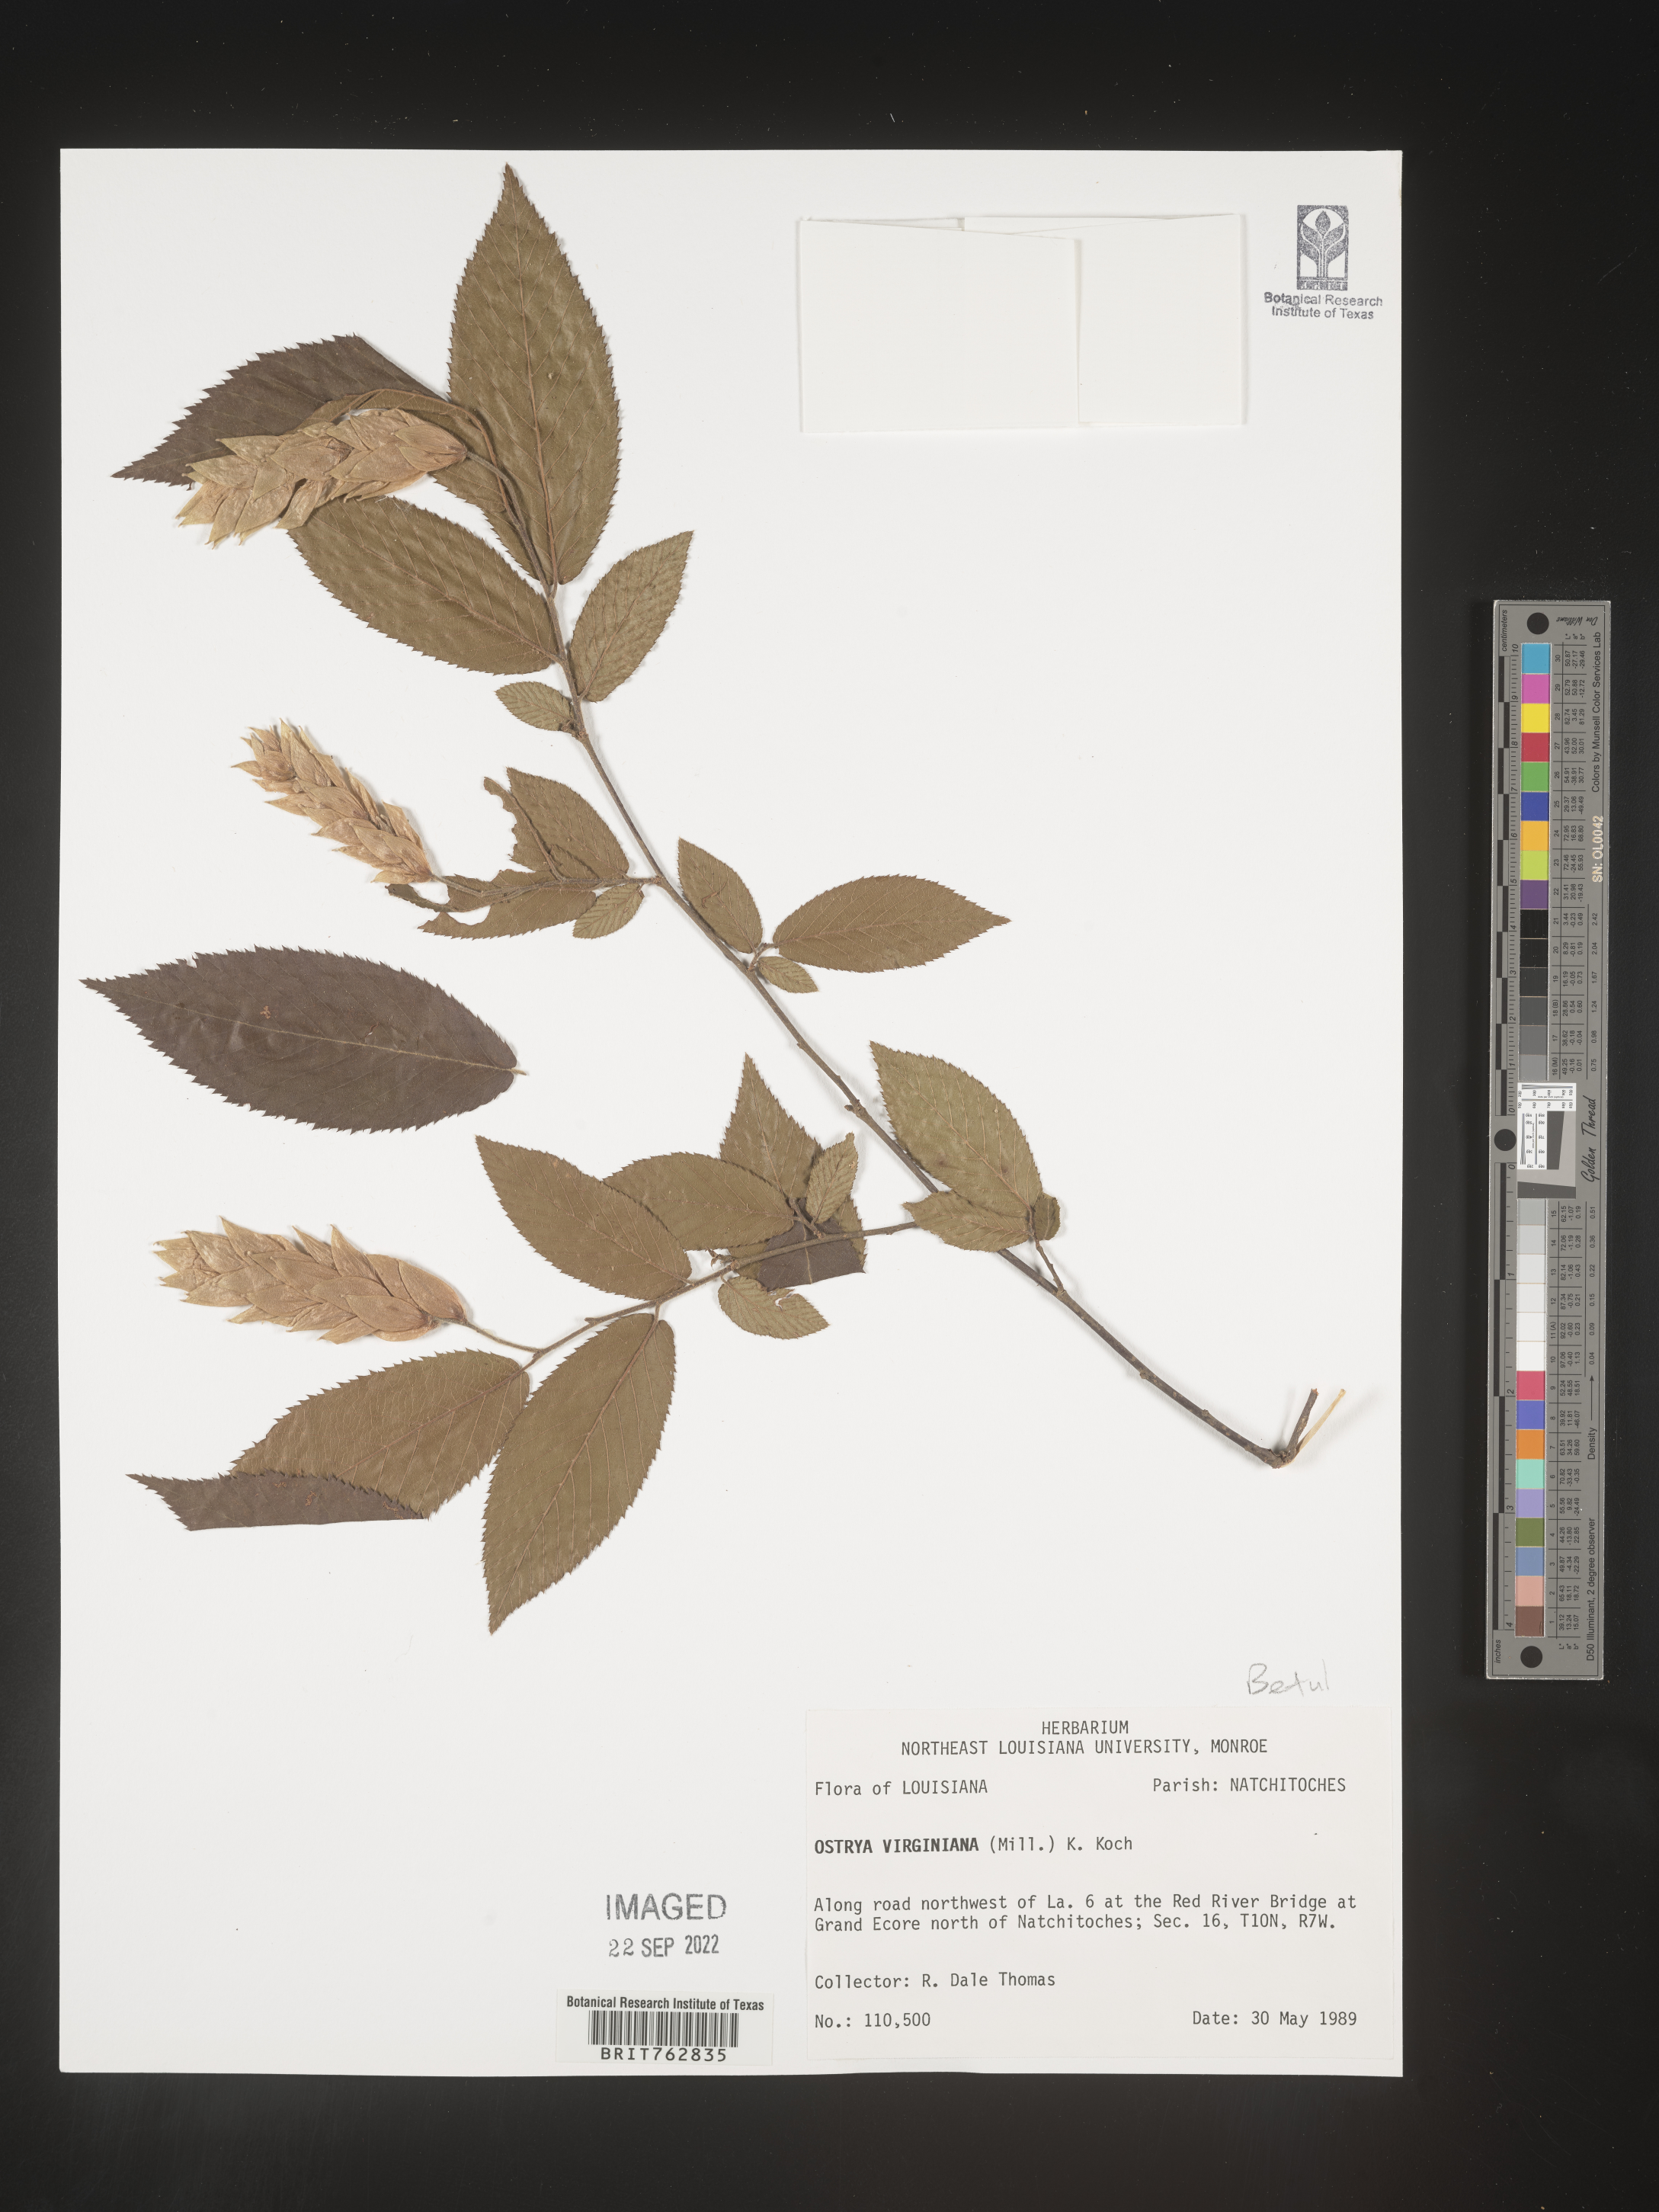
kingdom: Plantae
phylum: Tracheophyta
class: Magnoliopsida
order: Fagales
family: Betulaceae
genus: Ostrya
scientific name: Ostrya virginiana
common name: Ironwood
